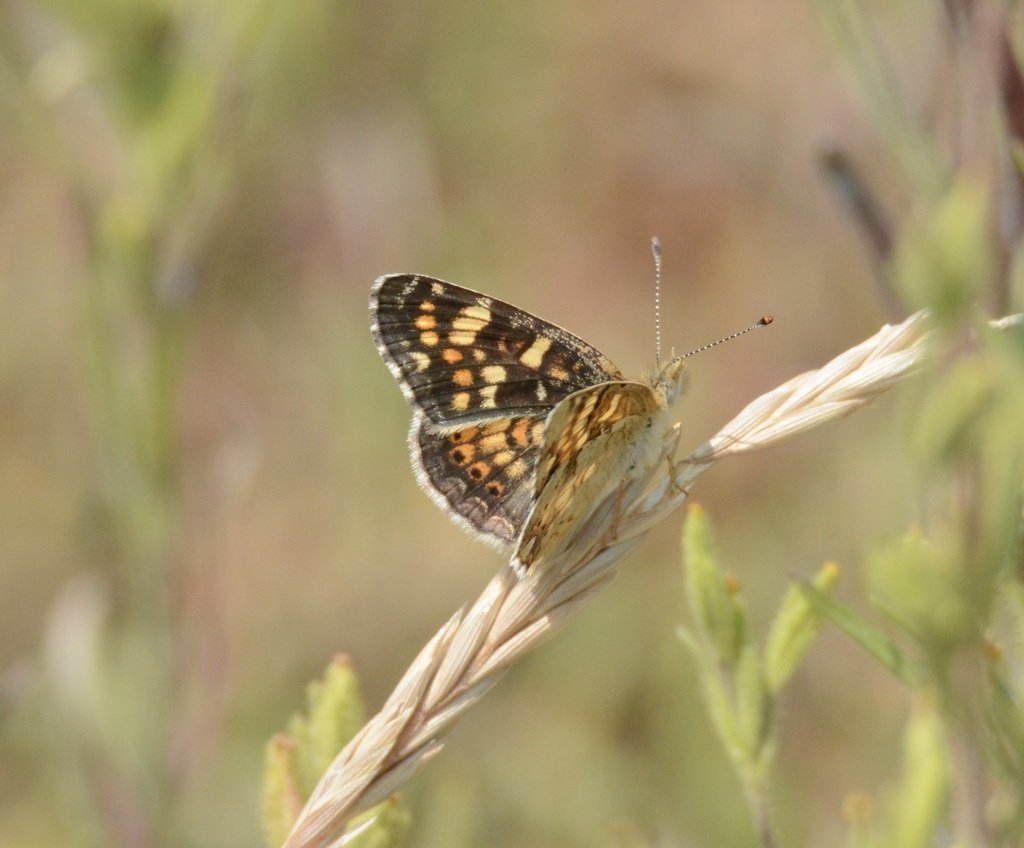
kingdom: Animalia
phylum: Arthropoda
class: Insecta
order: Lepidoptera
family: Nymphalidae
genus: Phyciodes
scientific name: Phyciodes tharos
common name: Field Crescent
